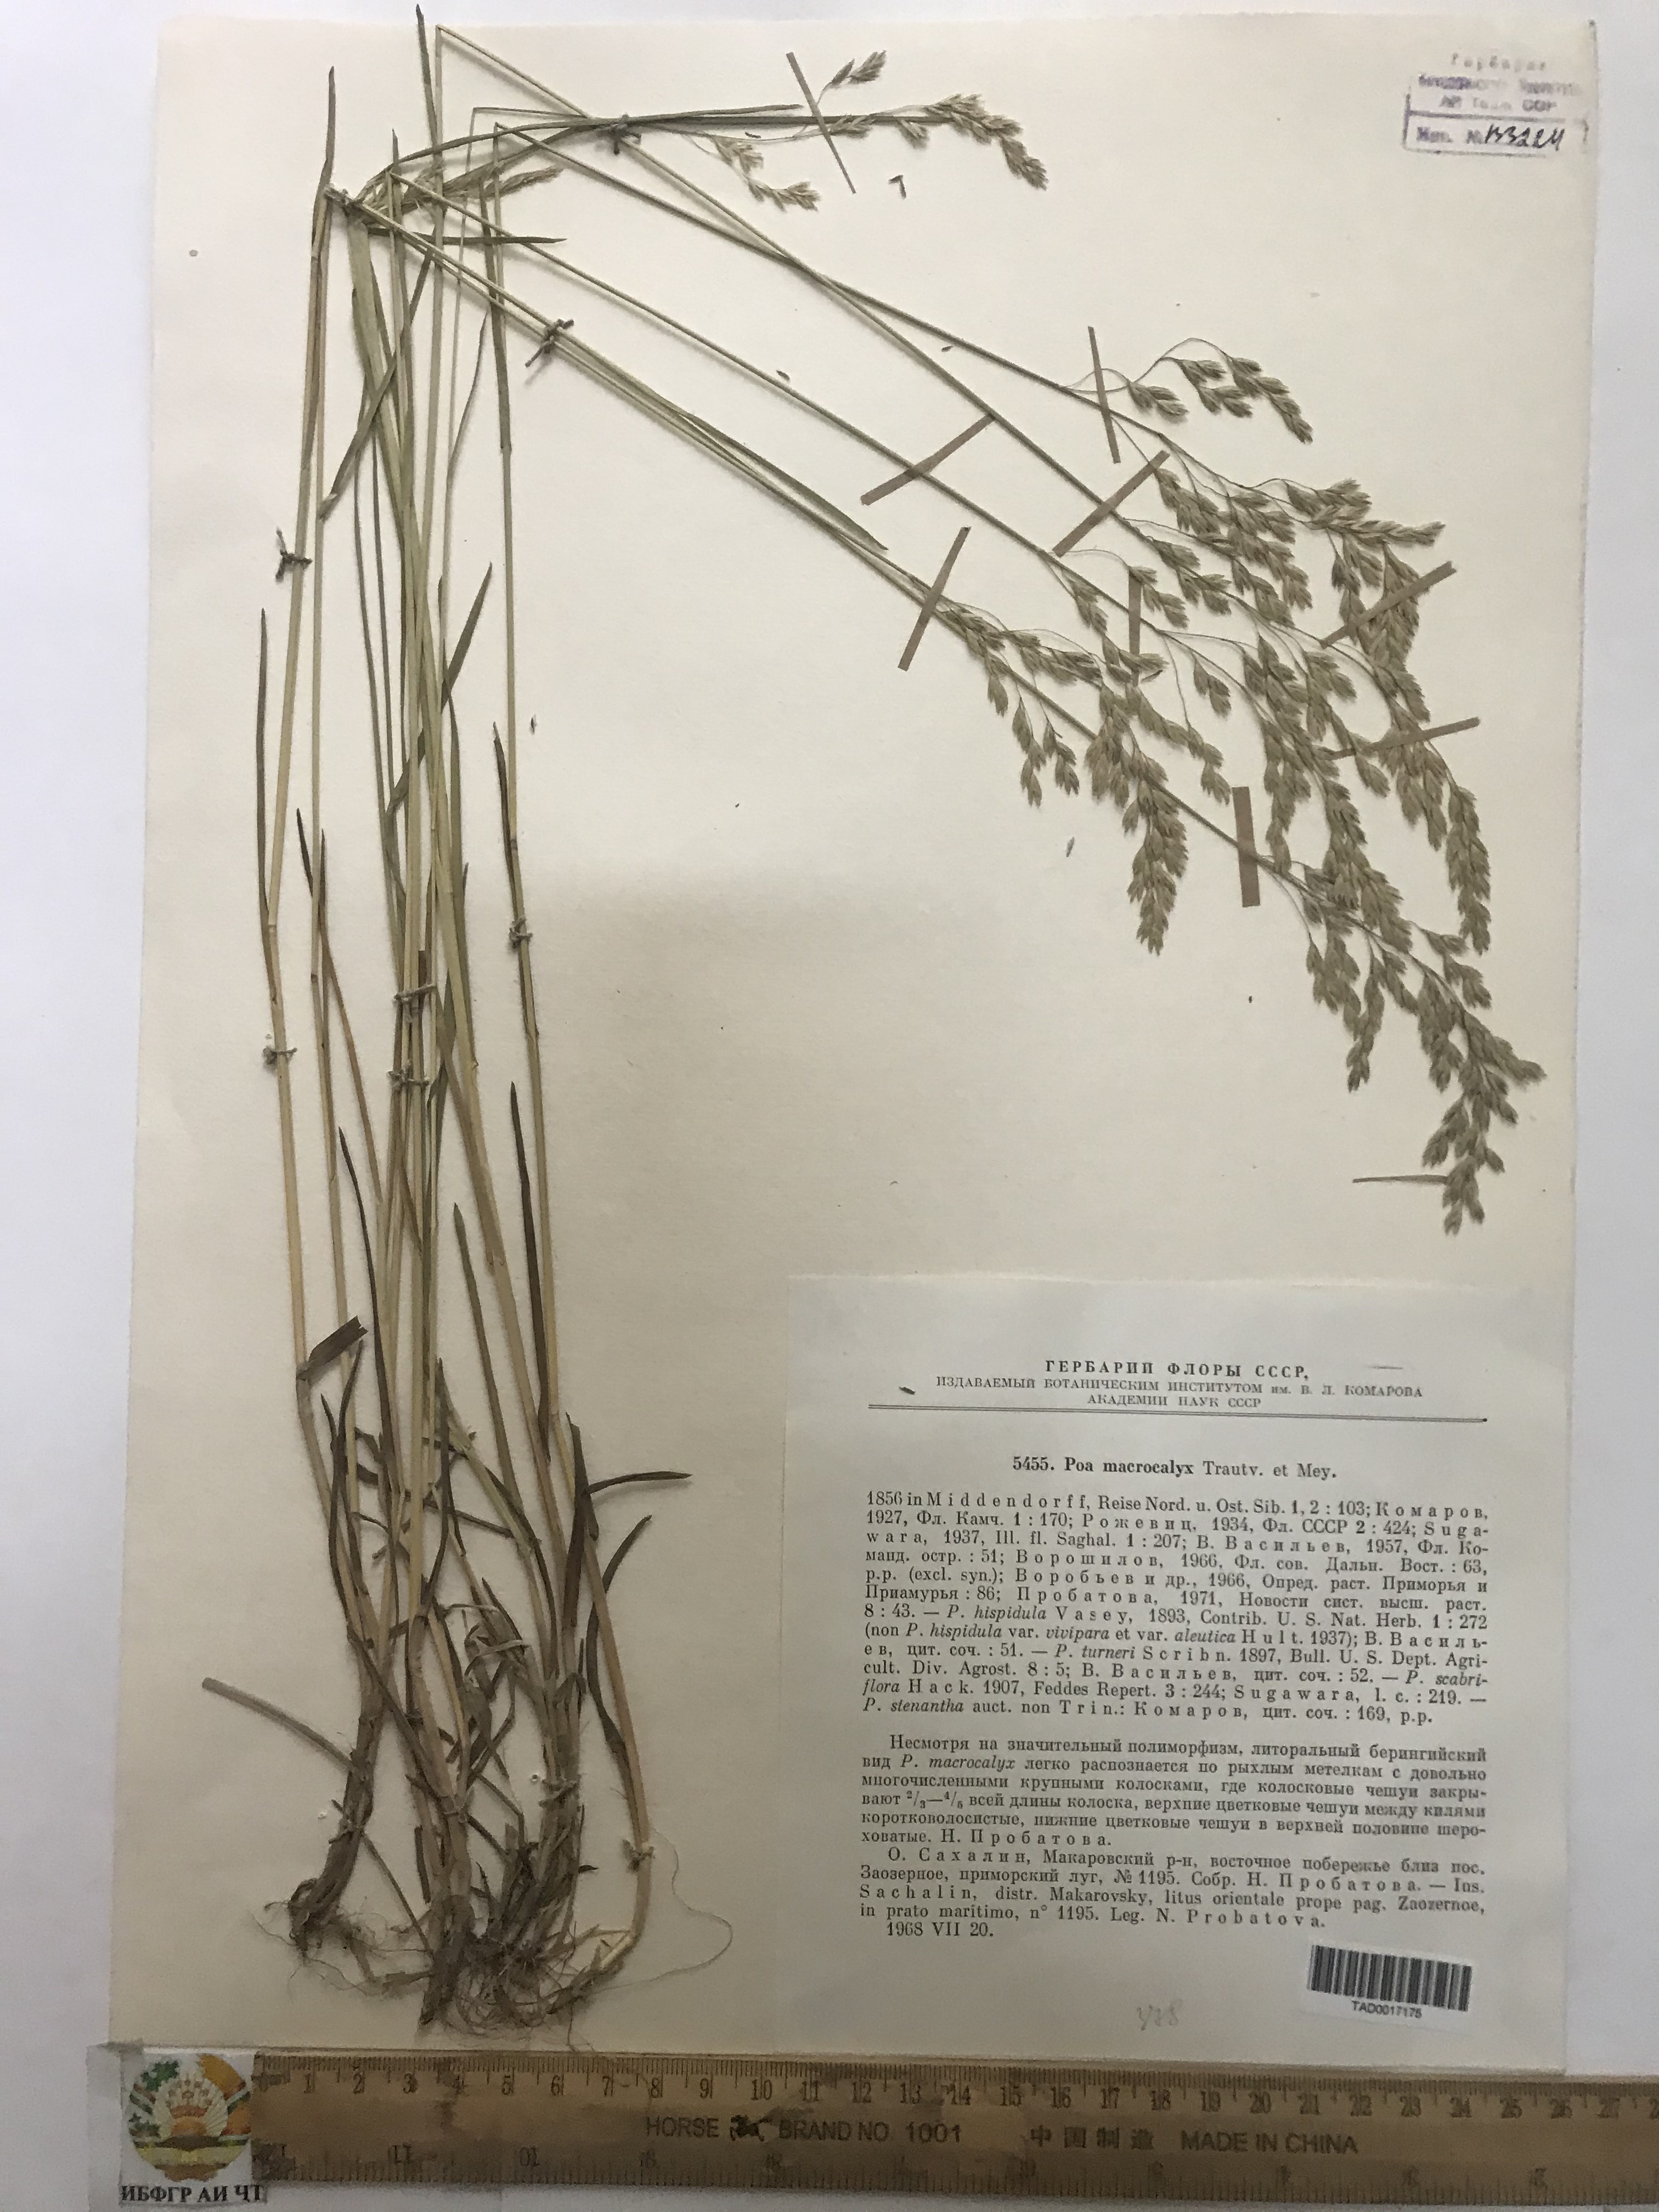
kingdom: Plantae
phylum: Tracheophyta
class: Liliopsida
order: Poales
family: Poaceae
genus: Poa
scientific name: Poa macrocalyx
